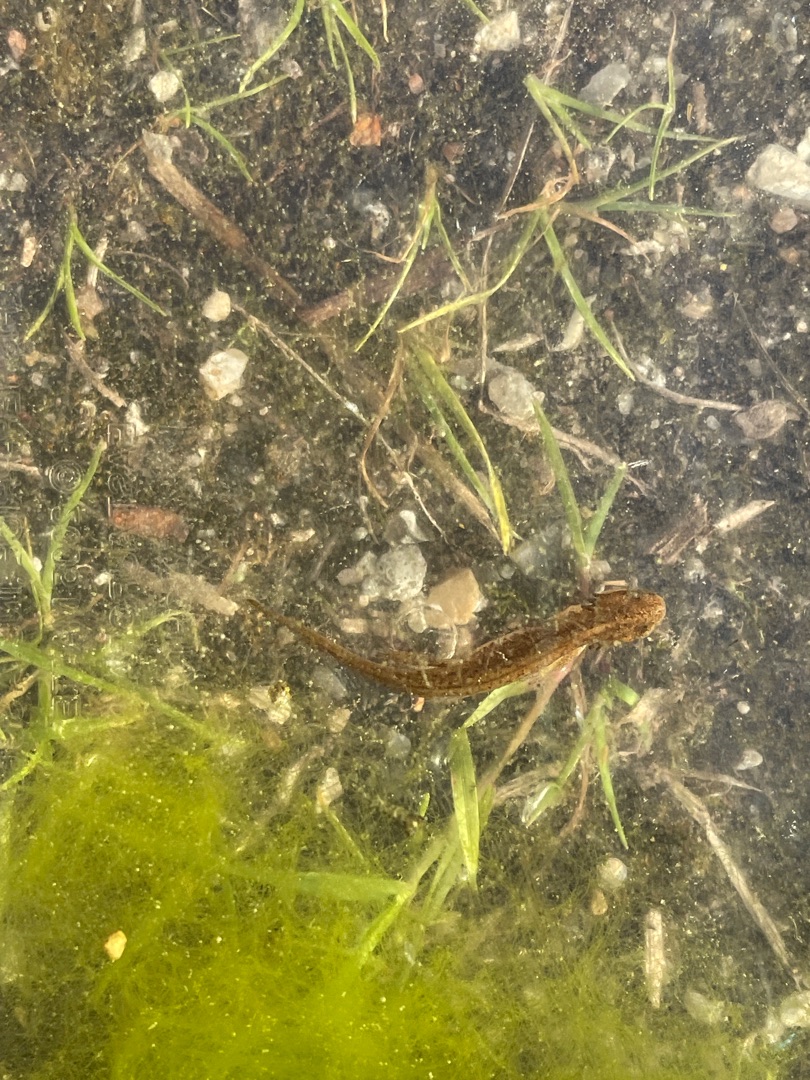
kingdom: Animalia
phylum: Chordata
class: Amphibia
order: Caudata
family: Salamandridae
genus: Lissotriton
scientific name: Lissotriton vulgaris
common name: Lille vandsalamander
